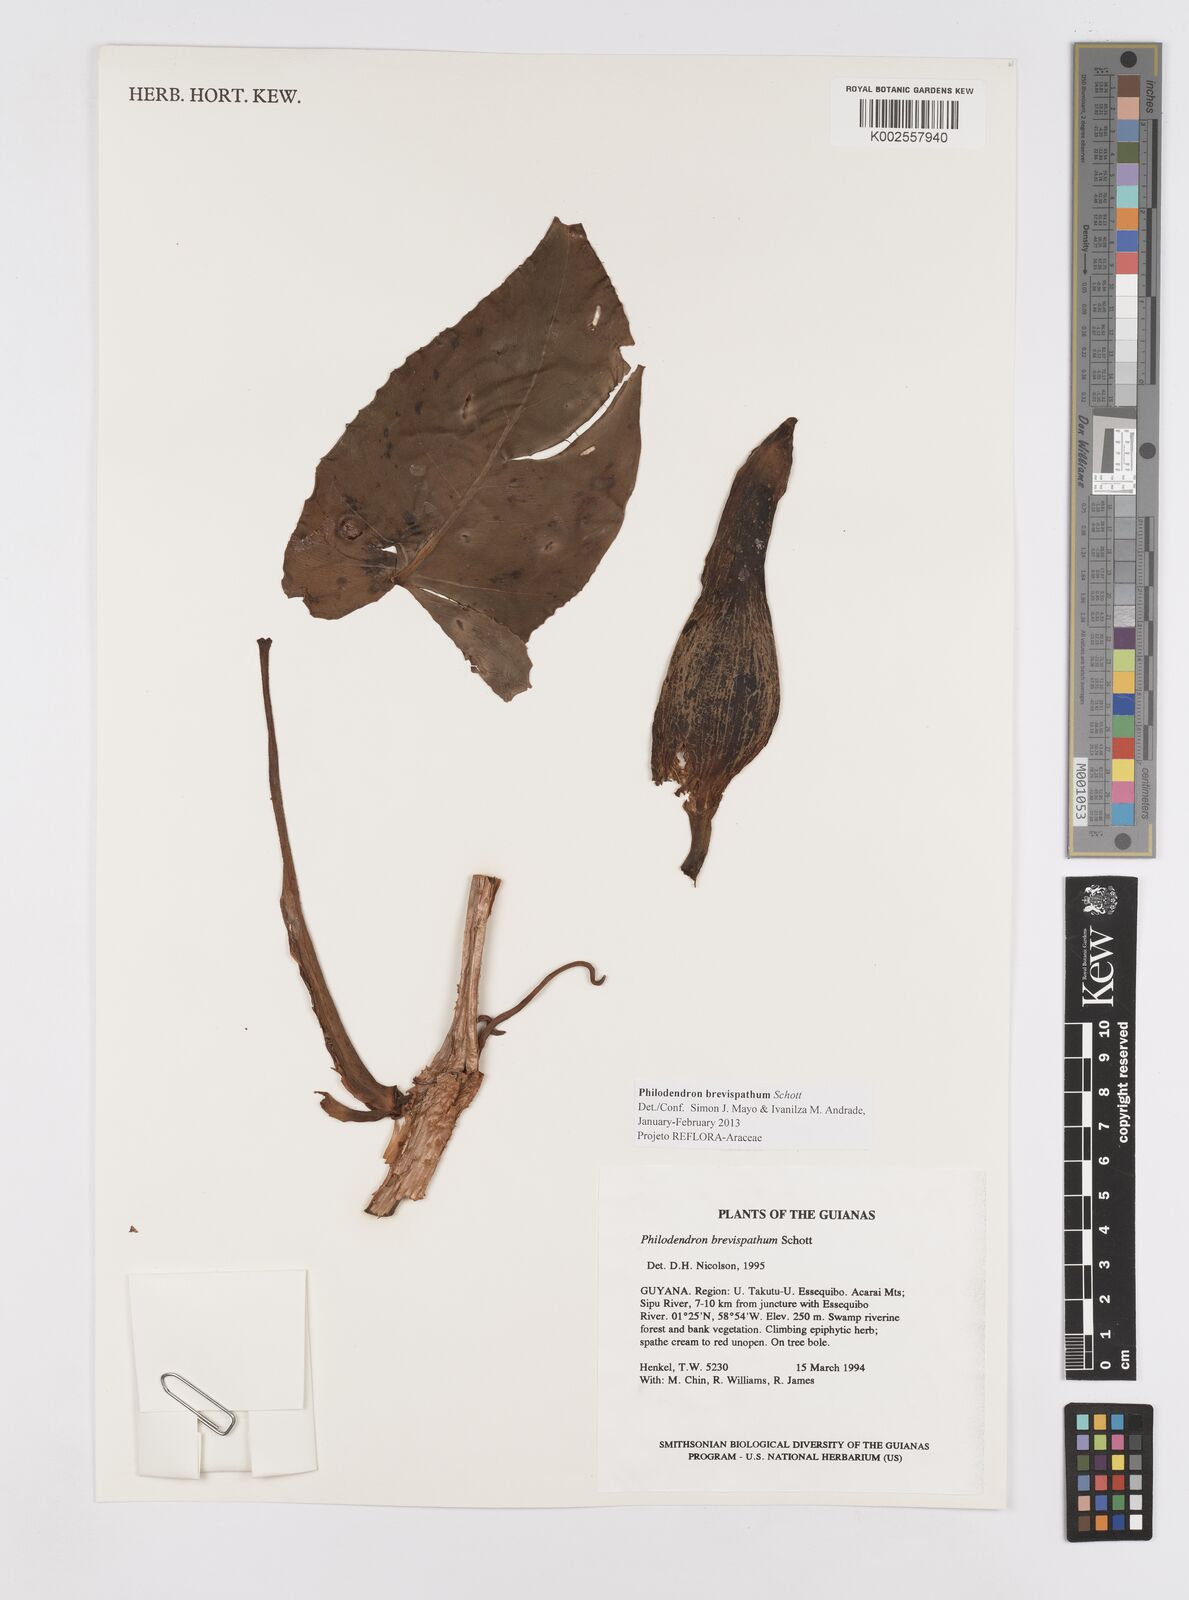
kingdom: Plantae
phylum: Tracheophyta
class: Liliopsida
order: Alismatales
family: Araceae
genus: Philodendron
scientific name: Philodendron brevispathum
